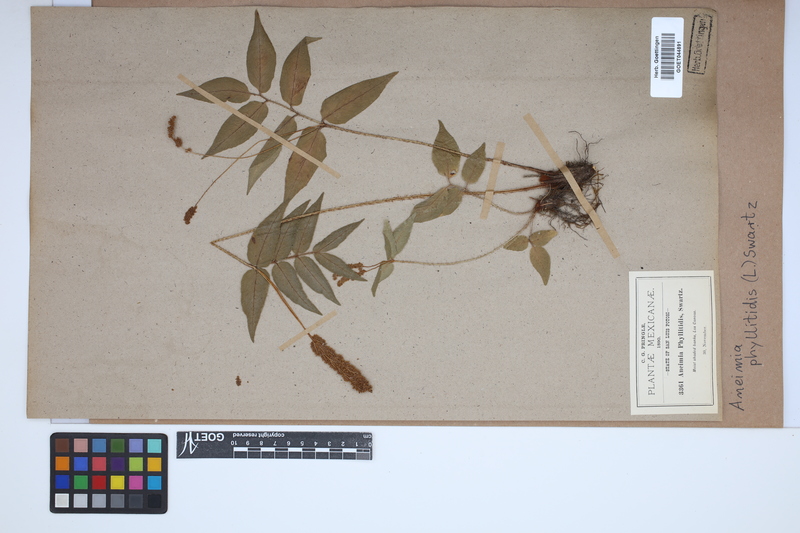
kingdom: Plantae
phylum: Tracheophyta
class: Polypodiopsida
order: Schizaeales
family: Anemiaceae
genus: Anemia
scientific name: Anemia phyllitidis
